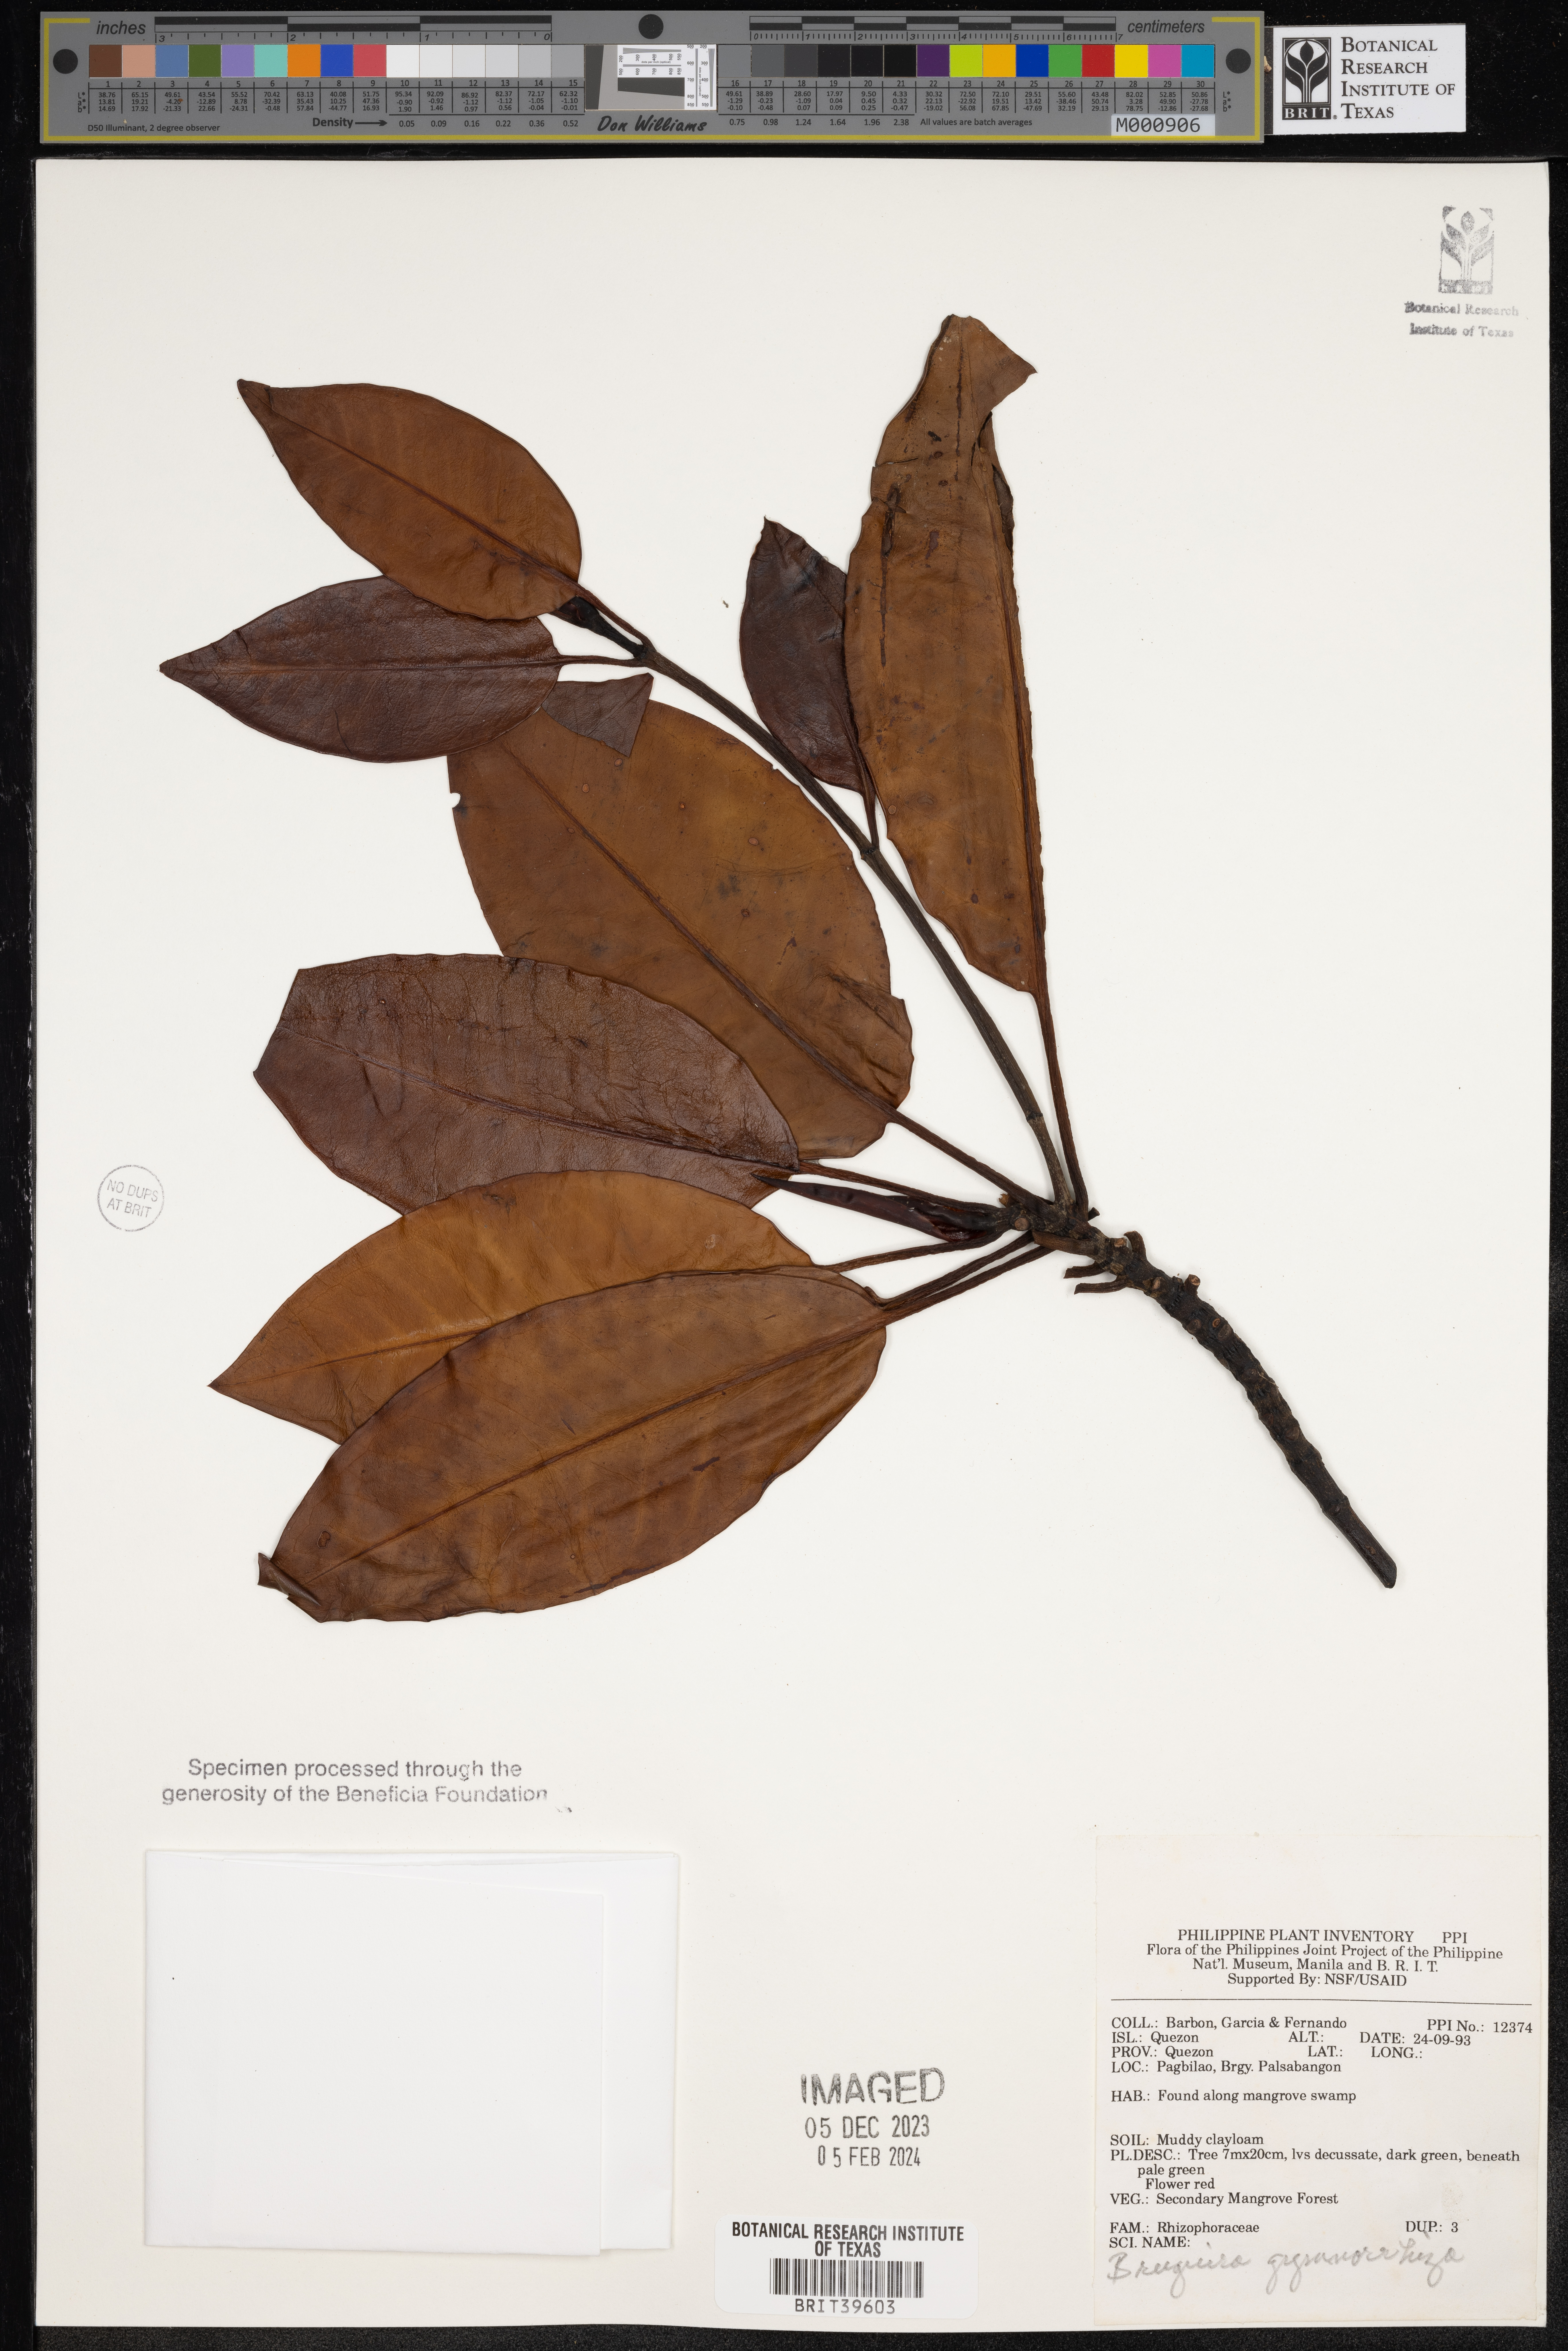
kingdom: Plantae
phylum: Tracheophyta
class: Magnoliopsida
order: Malpighiales
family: Rhizophoraceae
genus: Bruguiera
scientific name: Bruguiera gymnorhiza
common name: Oriental mangrove
